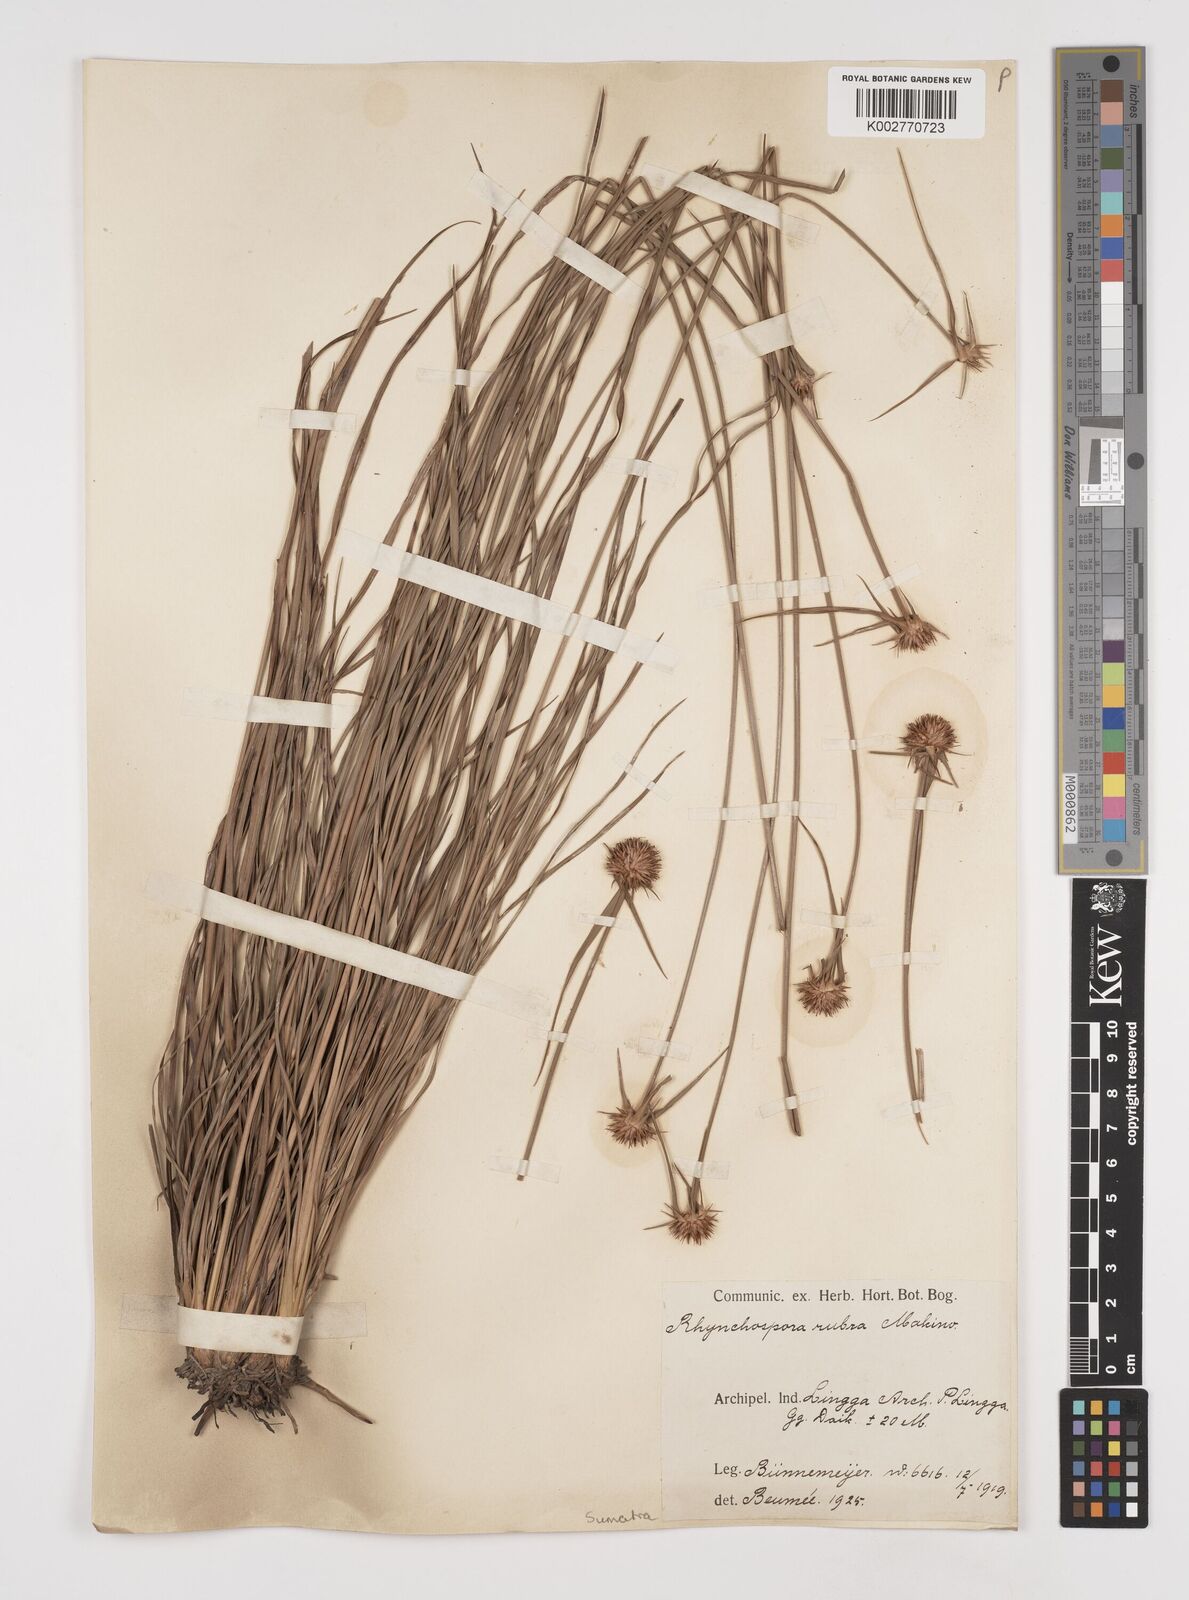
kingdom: Plantae
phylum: Tracheophyta
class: Liliopsida
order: Poales
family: Cyperaceae
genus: Rhynchospora
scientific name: Rhynchospora rubra
